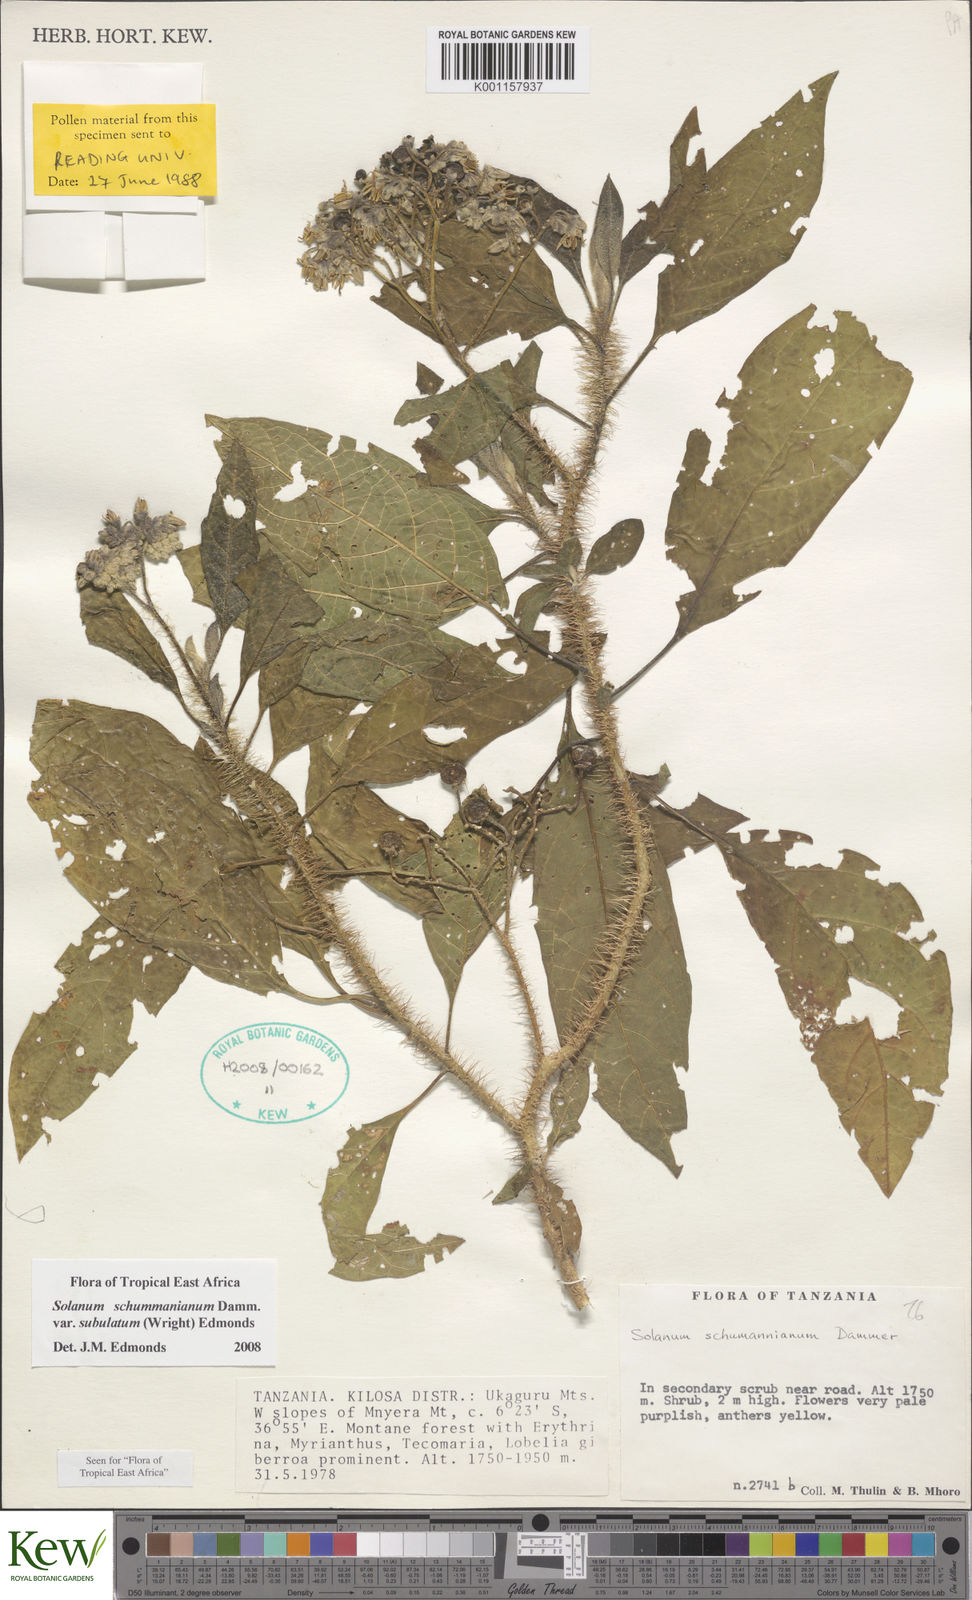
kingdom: Plantae
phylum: Tracheophyta
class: Magnoliopsida
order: Solanales
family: Solanaceae
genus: Solanum
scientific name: Solanum schumannianum
